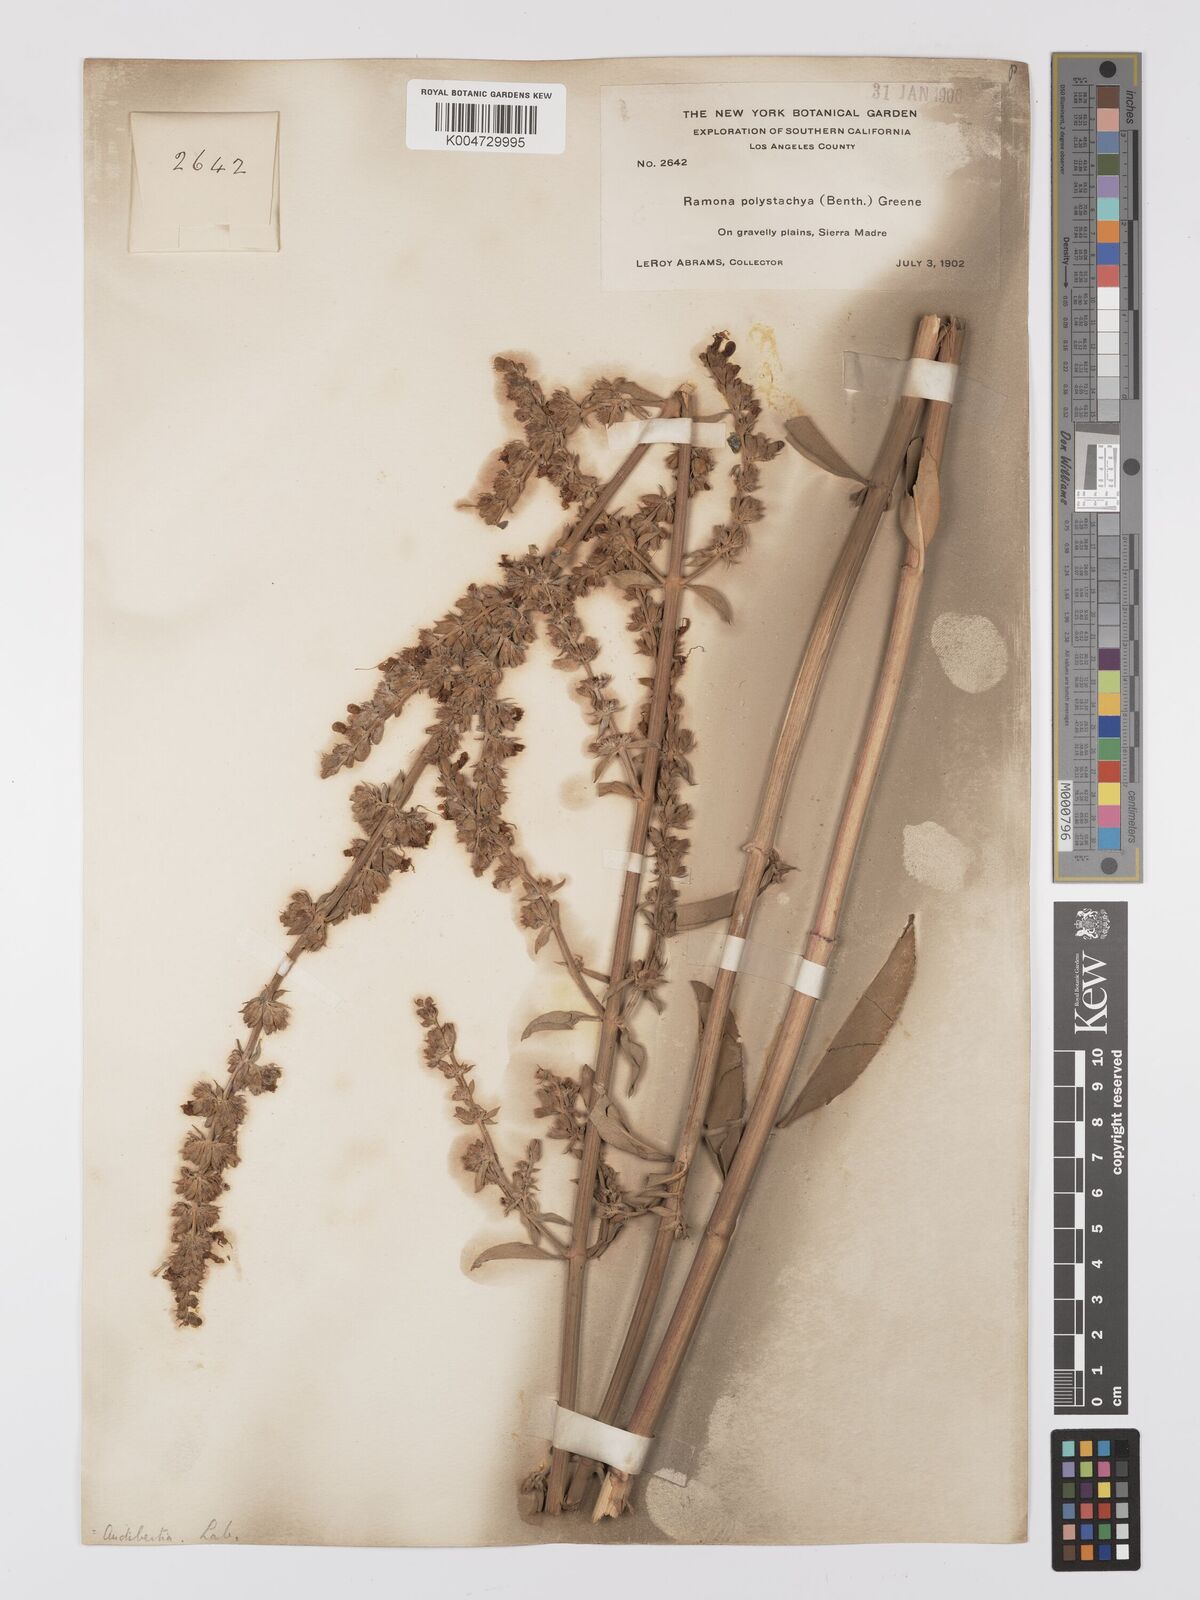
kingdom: Plantae
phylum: Tracheophyta
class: Magnoliopsida
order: Lamiales
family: Lamiaceae
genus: Salvia
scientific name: Salvia apiana
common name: White sage
